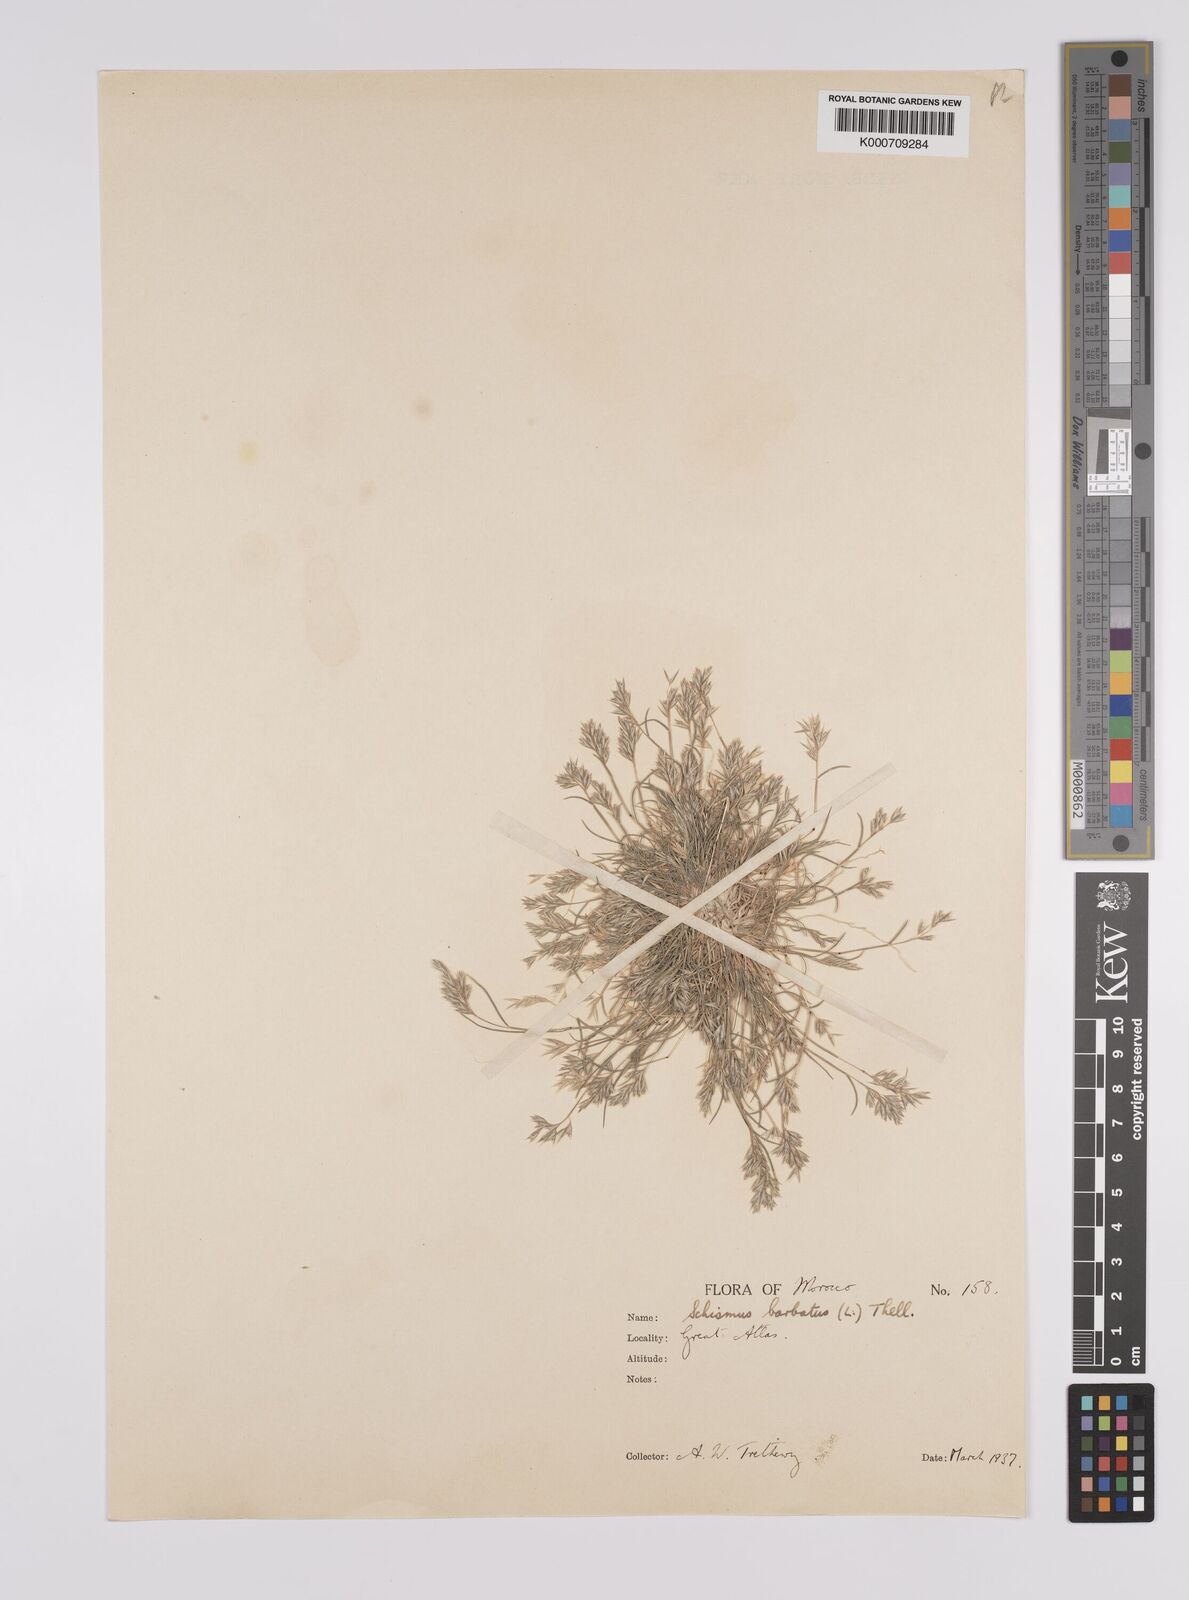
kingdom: Plantae
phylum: Tracheophyta
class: Liliopsida
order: Poales
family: Poaceae
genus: Schismus
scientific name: Schismus barbatus
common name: Kelch-grass
